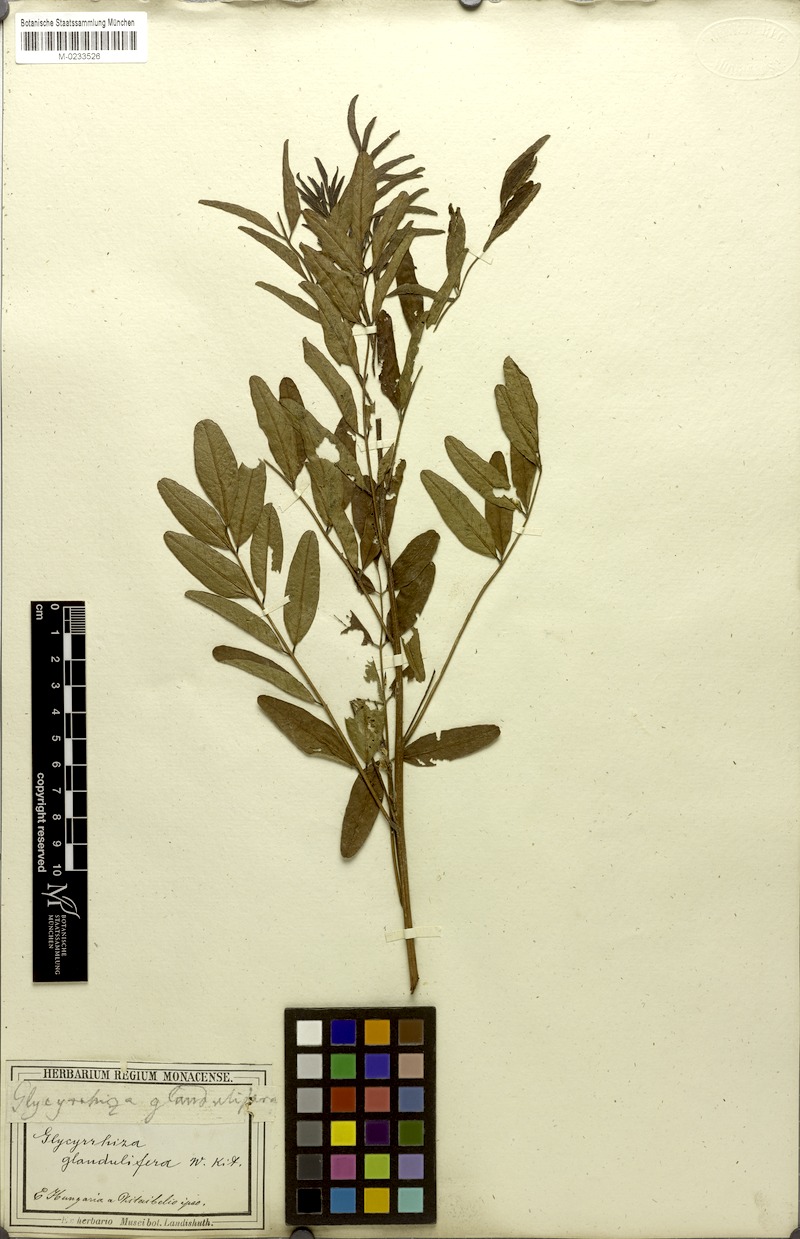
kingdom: Plantae
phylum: Tracheophyta
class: Magnoliopsida
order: Fabales
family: Fabaceae
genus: Glycyrrhiza
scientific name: Glycyrrhiza glabra
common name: Liquorice
